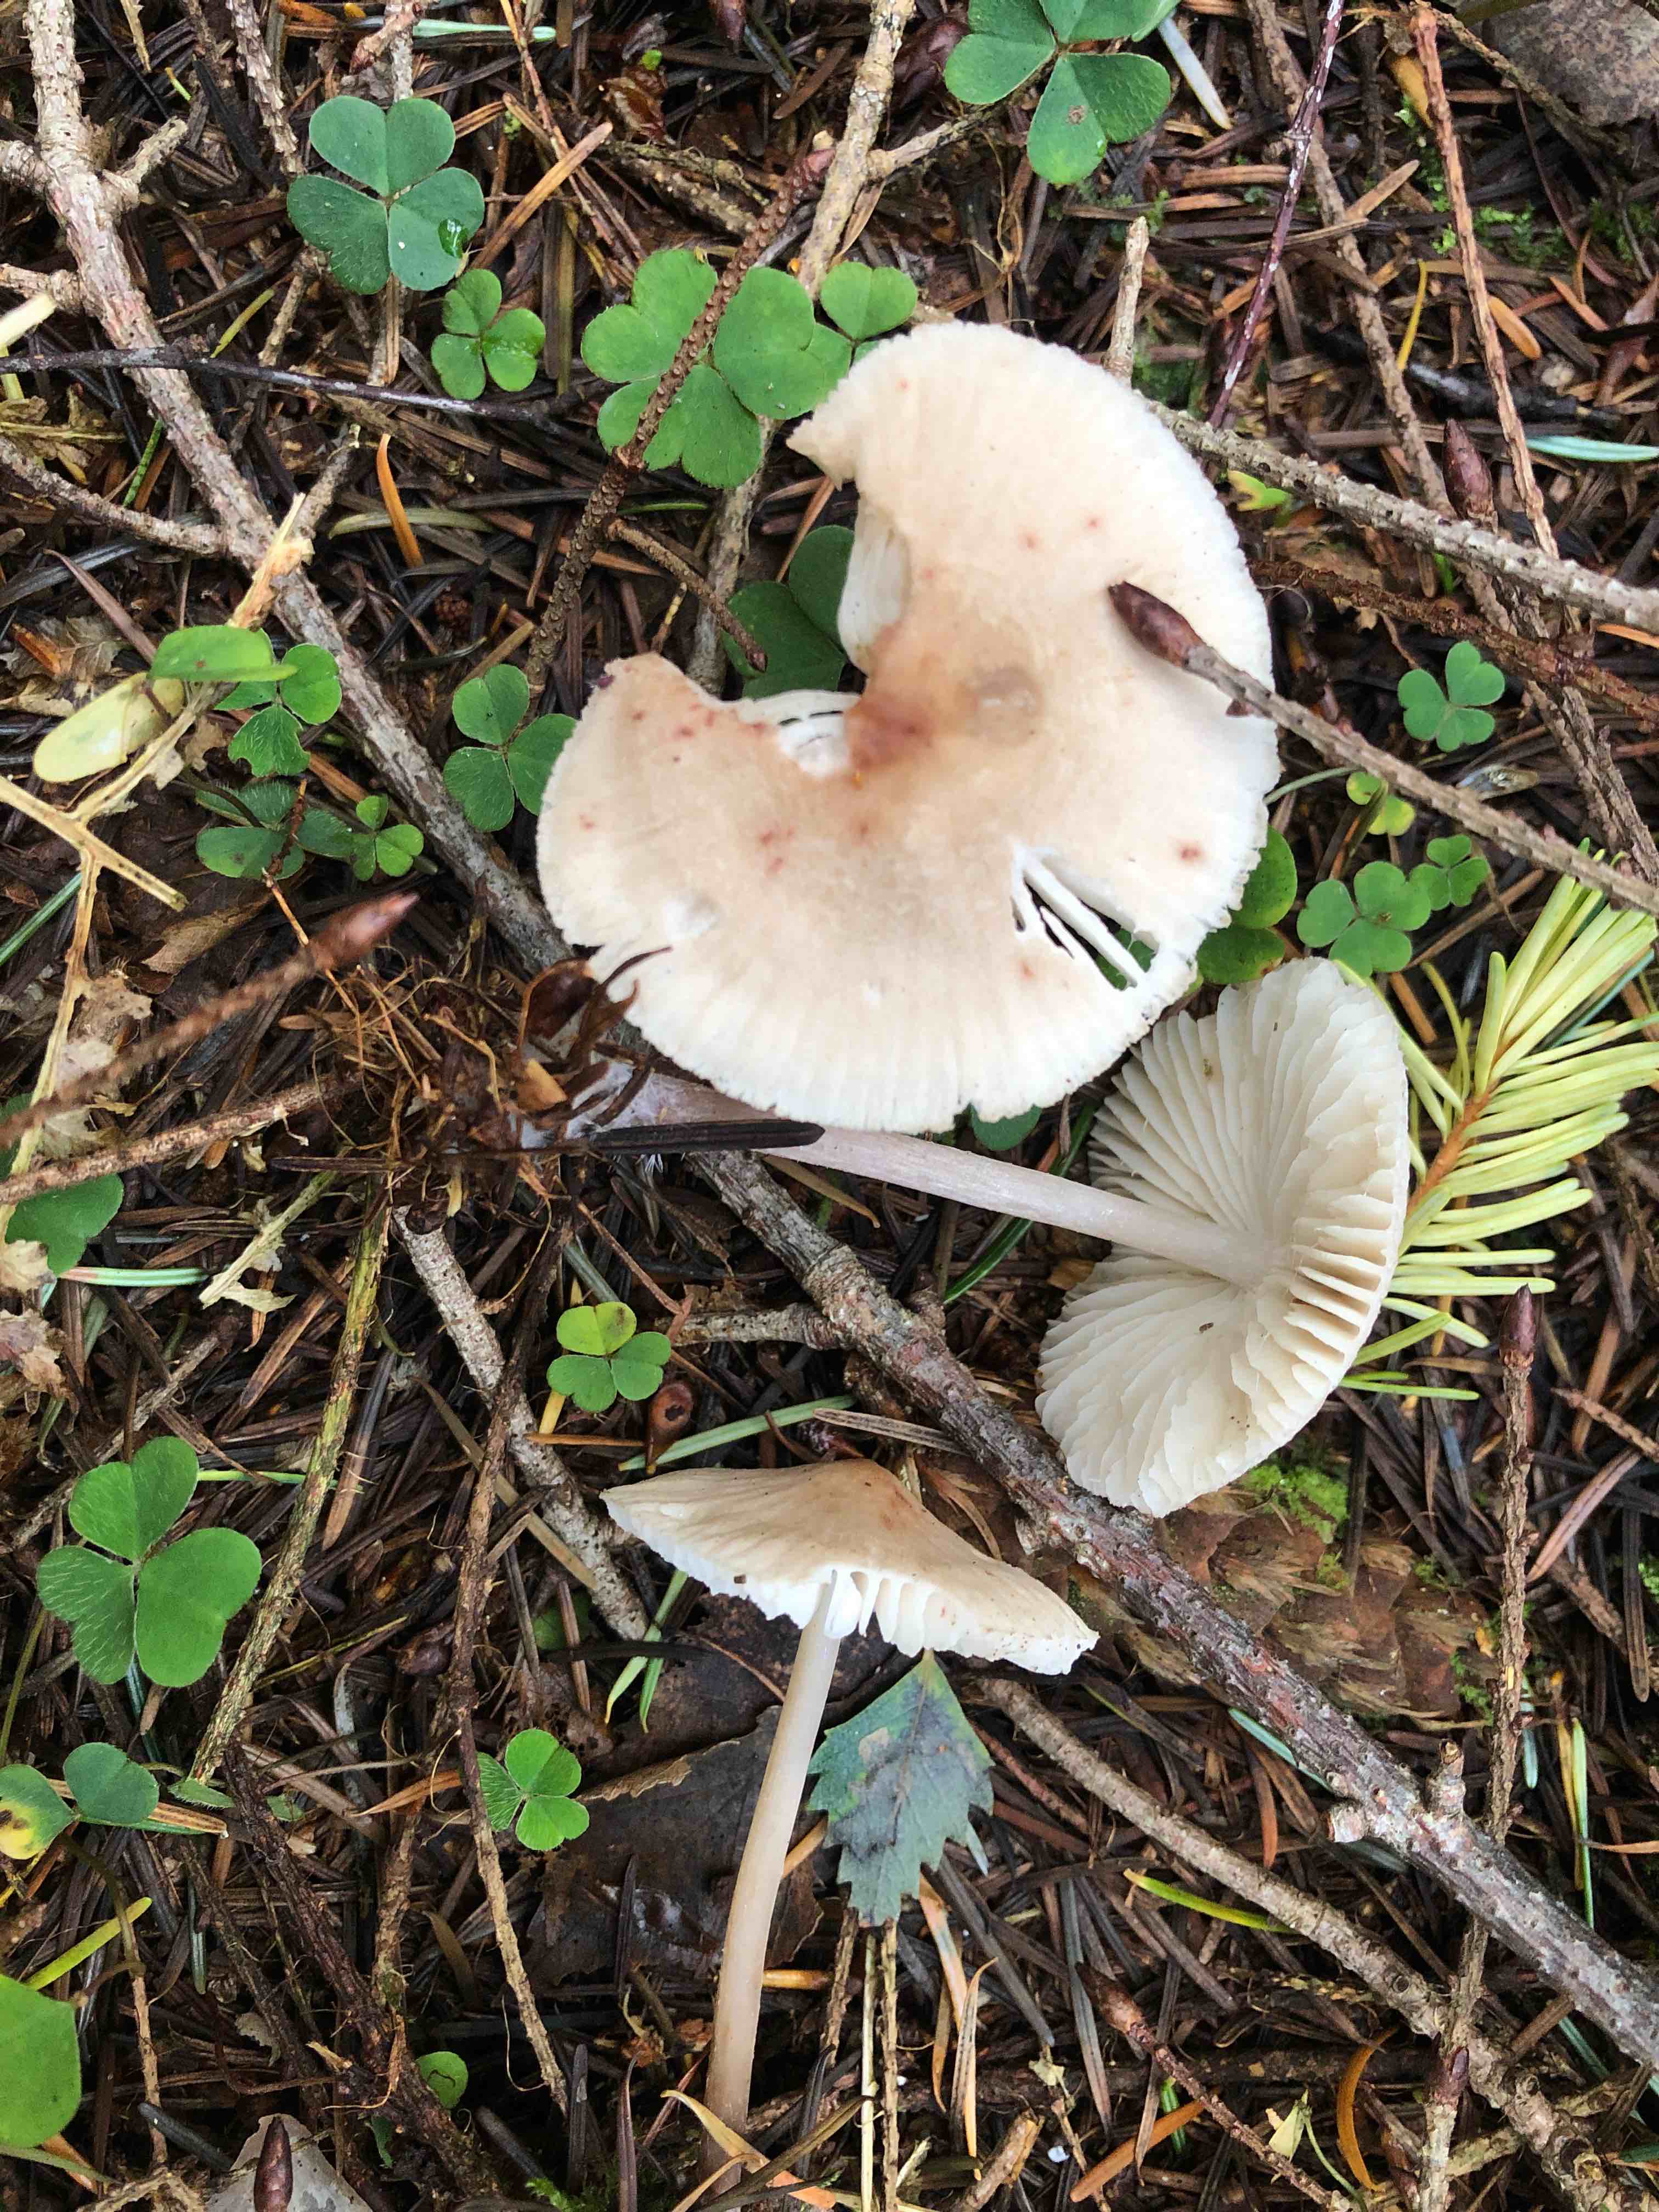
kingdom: Fungi
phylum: Basidiomycota
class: Agaricomycetes
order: Agaricales
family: Mycenaceae
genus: Mycena
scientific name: Mycena galericulata
